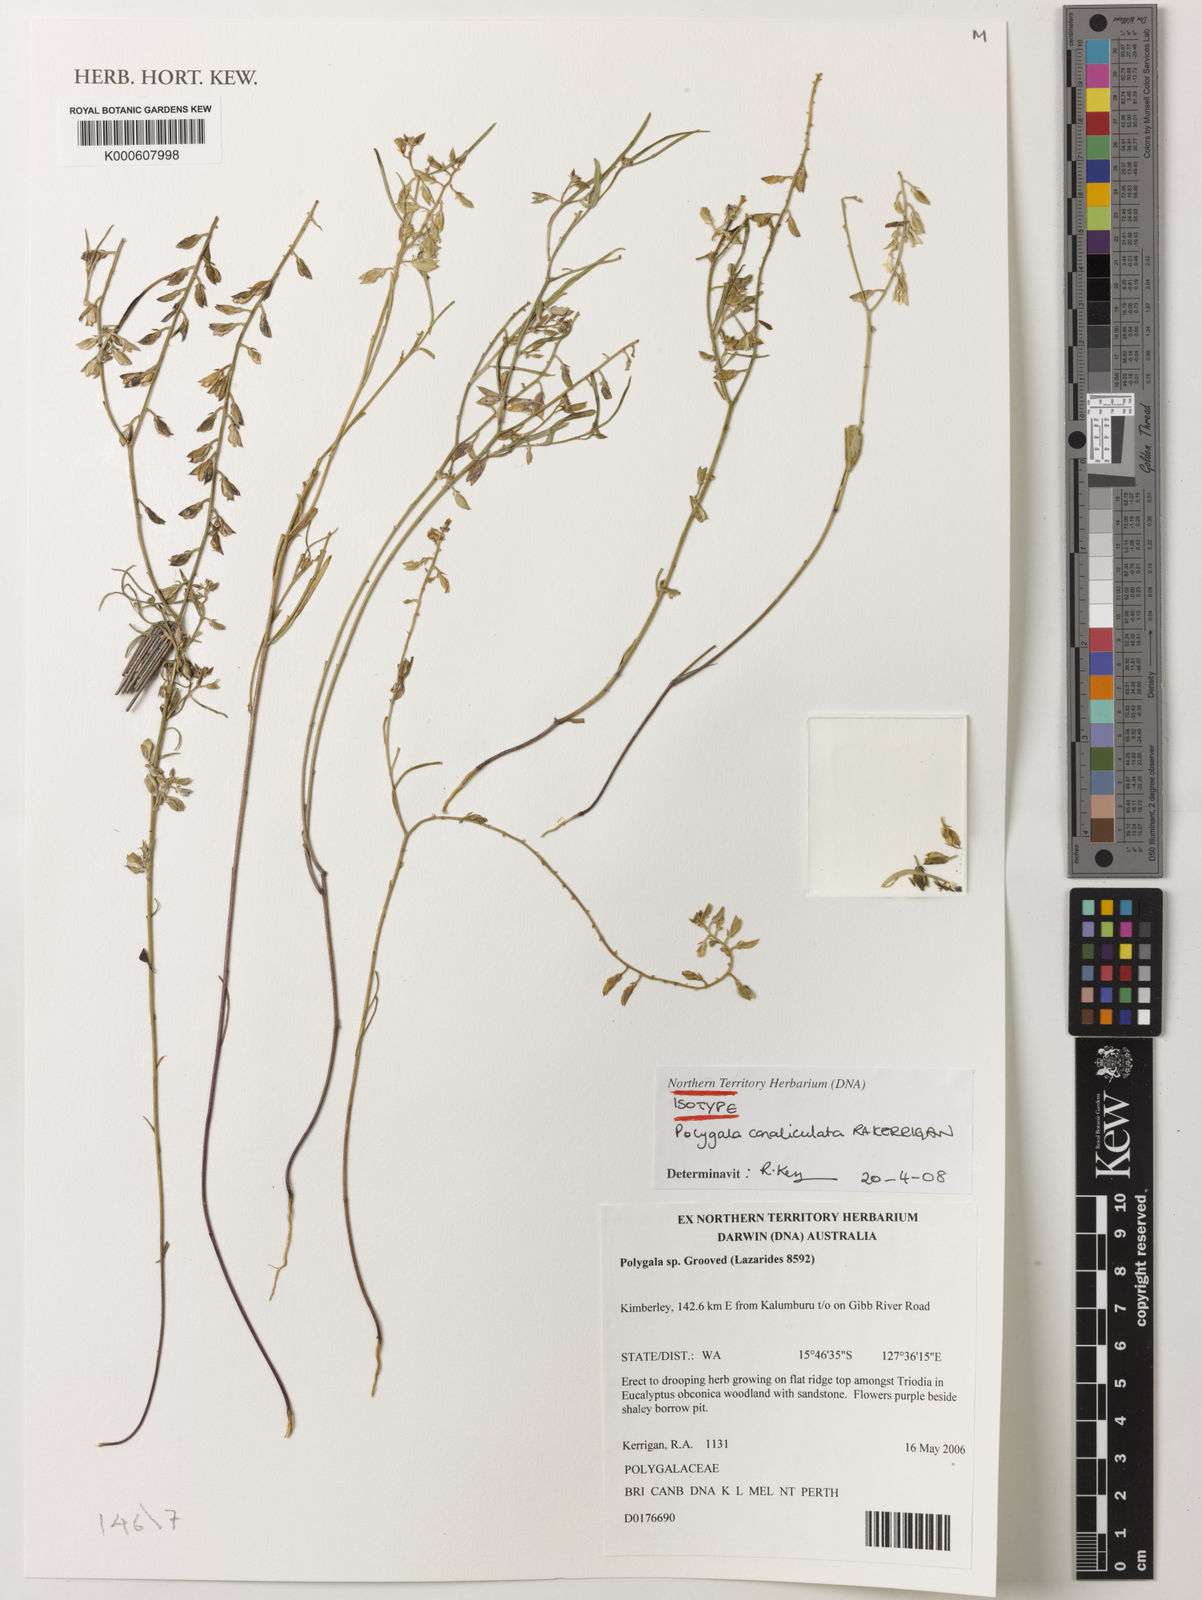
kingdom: Plantae
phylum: Tracheophyta
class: Magnoliopsida
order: Fabales
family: Polygalaceae
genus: Polygala
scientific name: Polygala canaliculata
